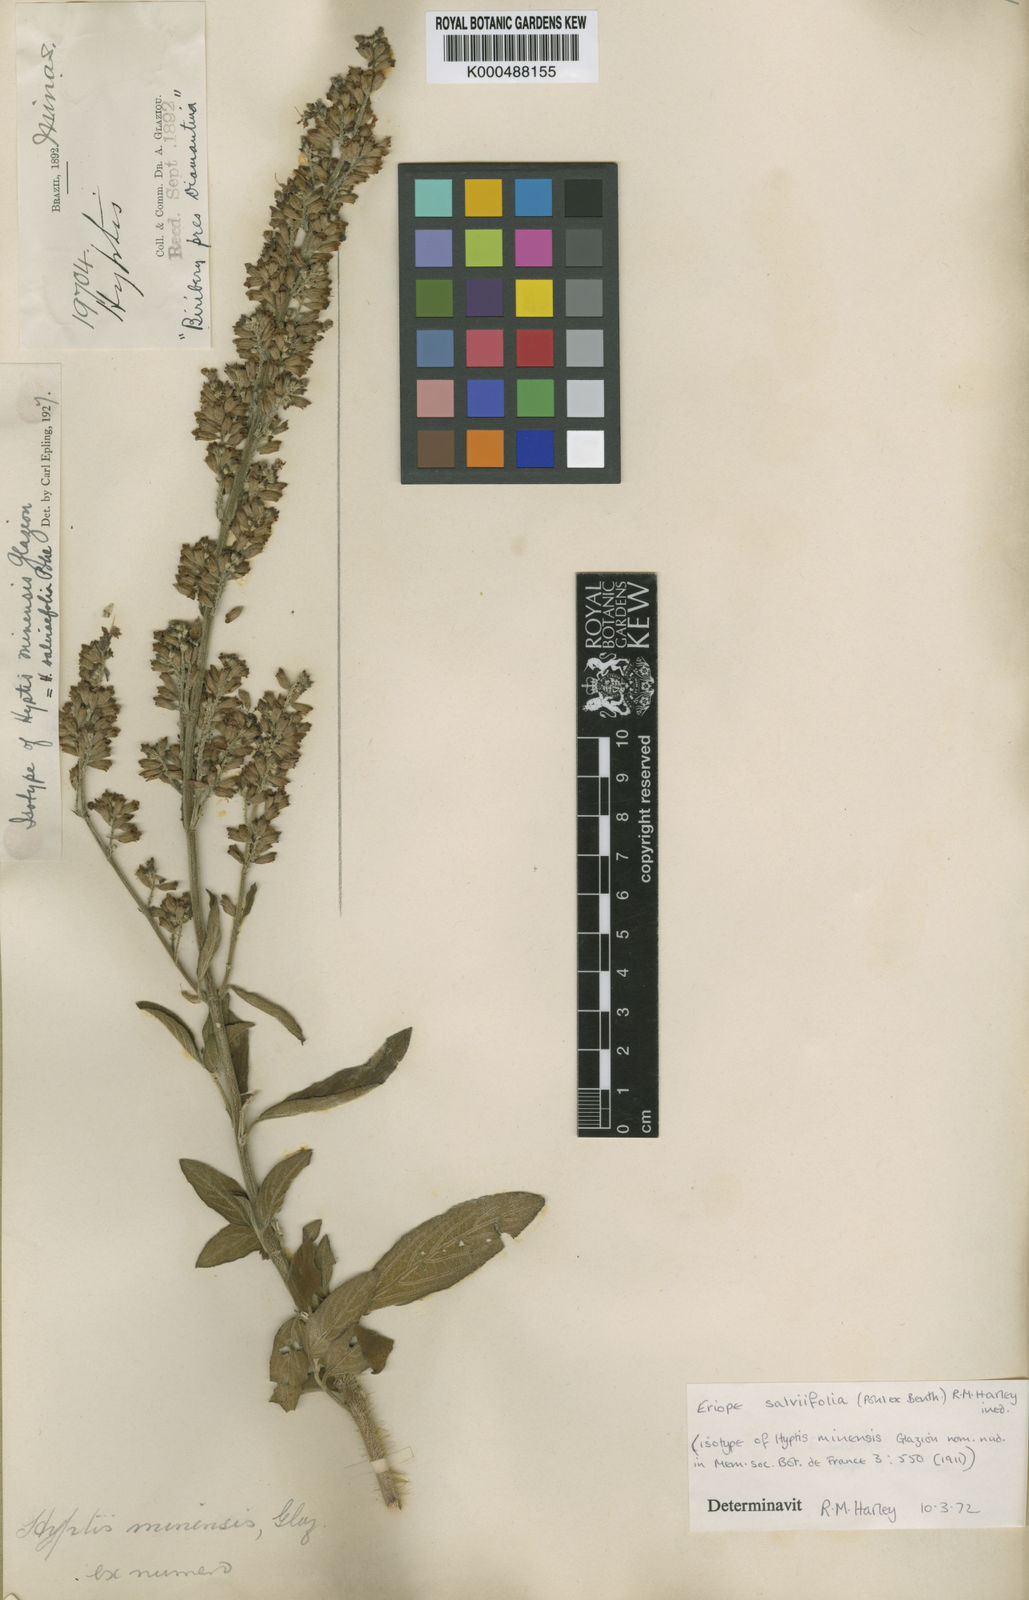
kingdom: Plantae
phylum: Tracheophyta
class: Magnoliopsida
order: Lamiales
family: Lamiaceae
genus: Eriope
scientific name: Eriope salviifolia
